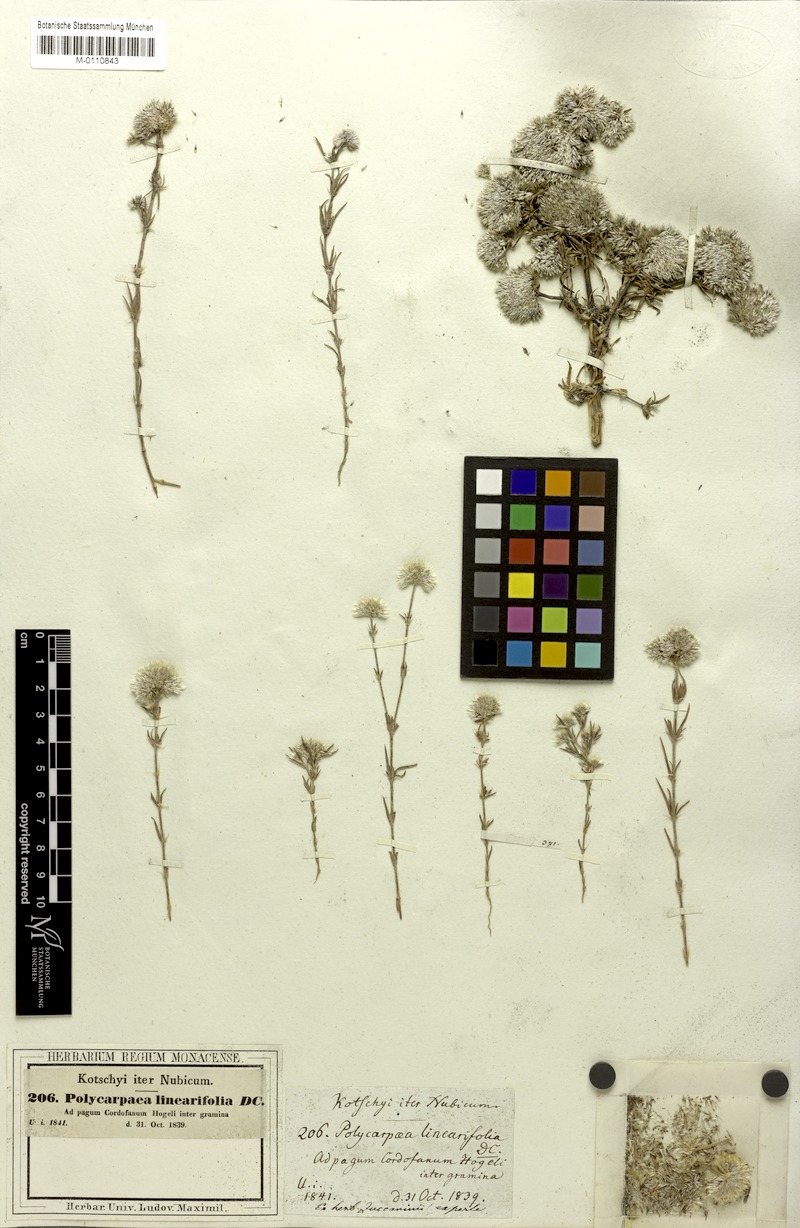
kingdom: Plantae
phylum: Tracheophyta
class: Magnoliopsida
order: Caryophyllales
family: Caryophyllaceae
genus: Polycarpaea
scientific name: Polycarpaea linearifolia
